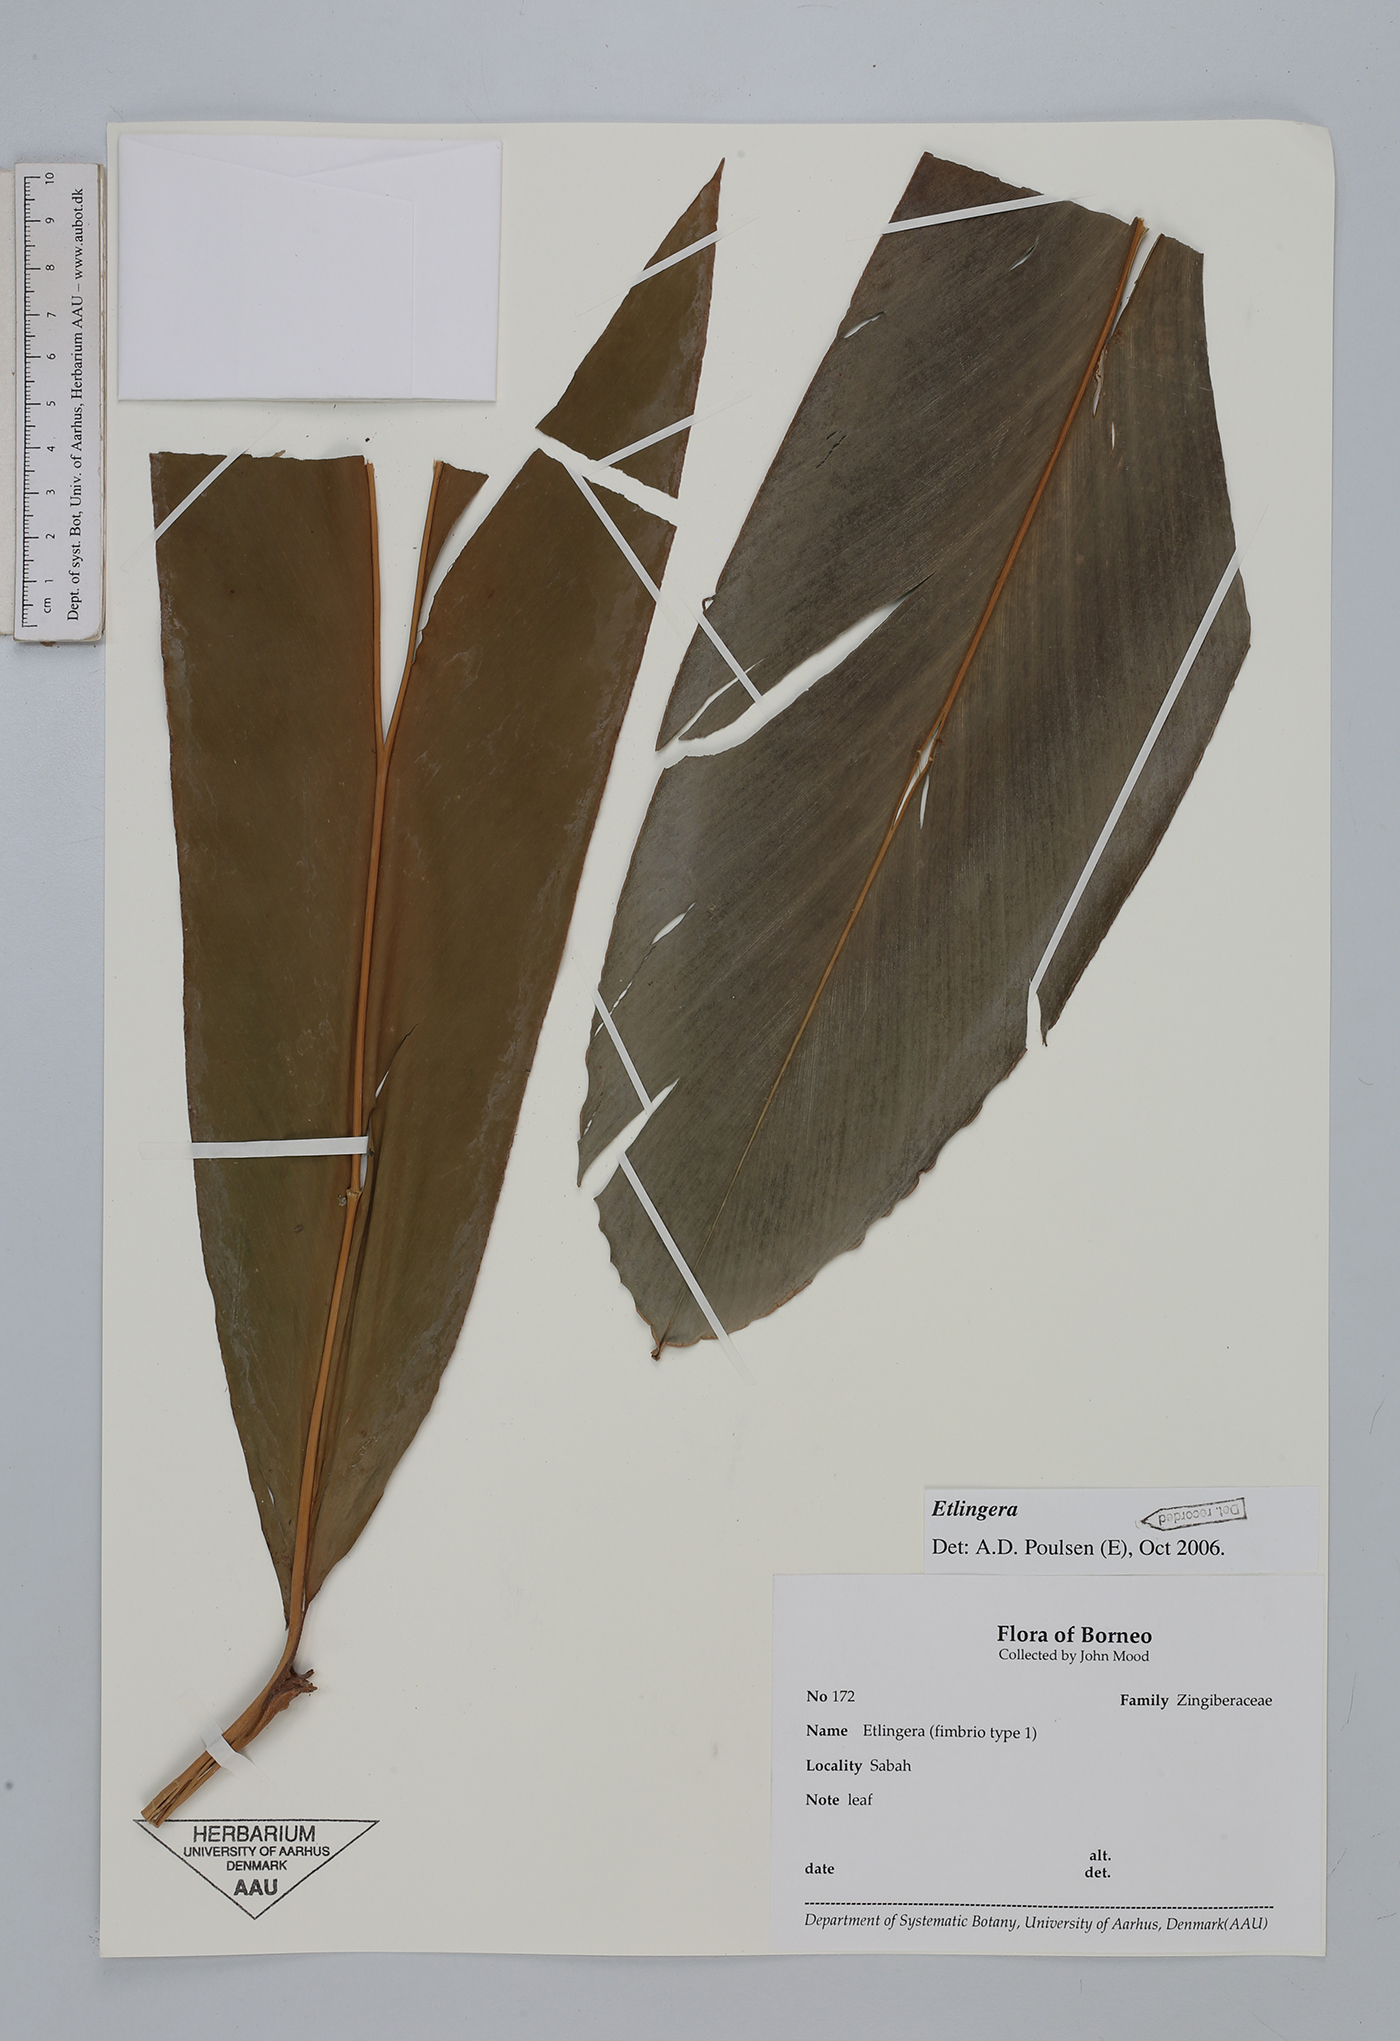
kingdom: Plantae
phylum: Tracheophyta
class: Liliopsida
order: Zingiberales
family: Zingiberaceae
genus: Etlingera
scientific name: Etlingera
